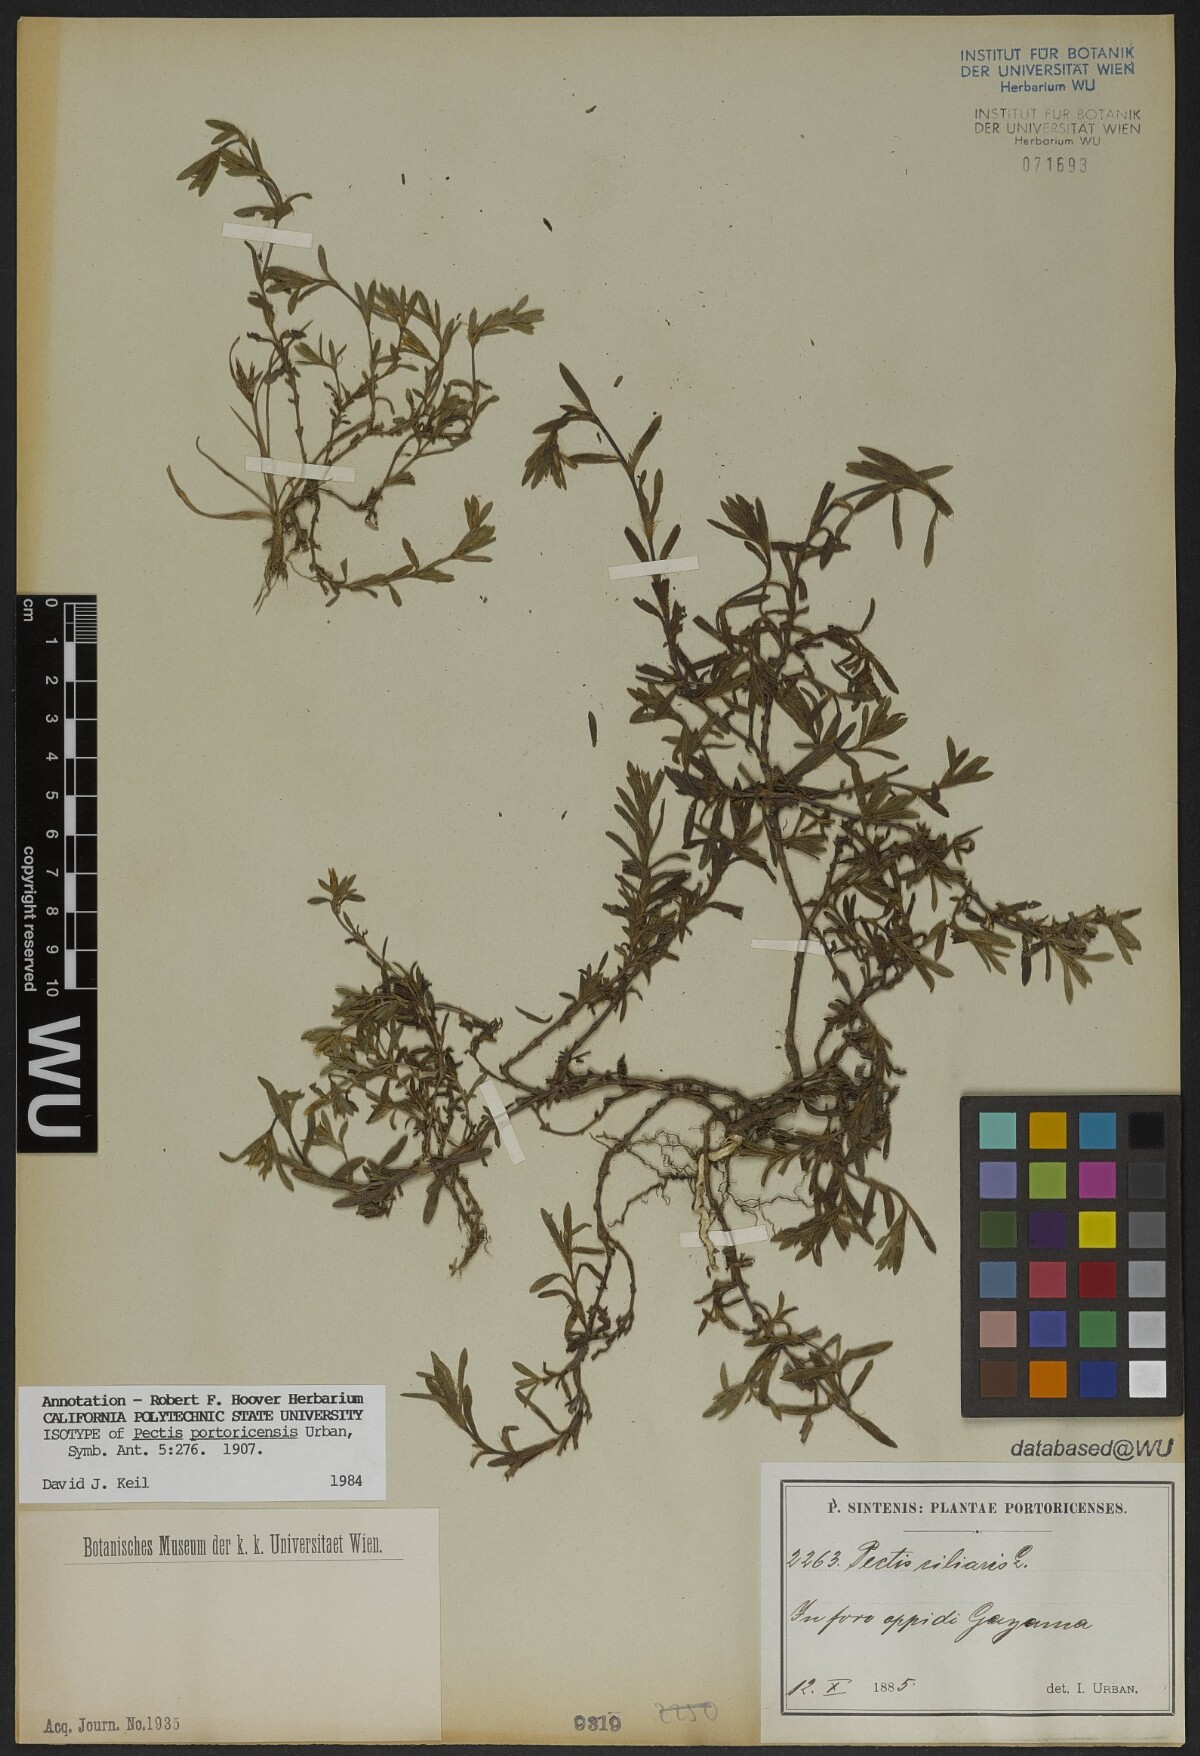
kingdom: Plantae
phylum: Tracheophyta
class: Magnoliopsida
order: Asterales
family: Asteraceae
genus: Pectis
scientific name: Pectis prostrata
